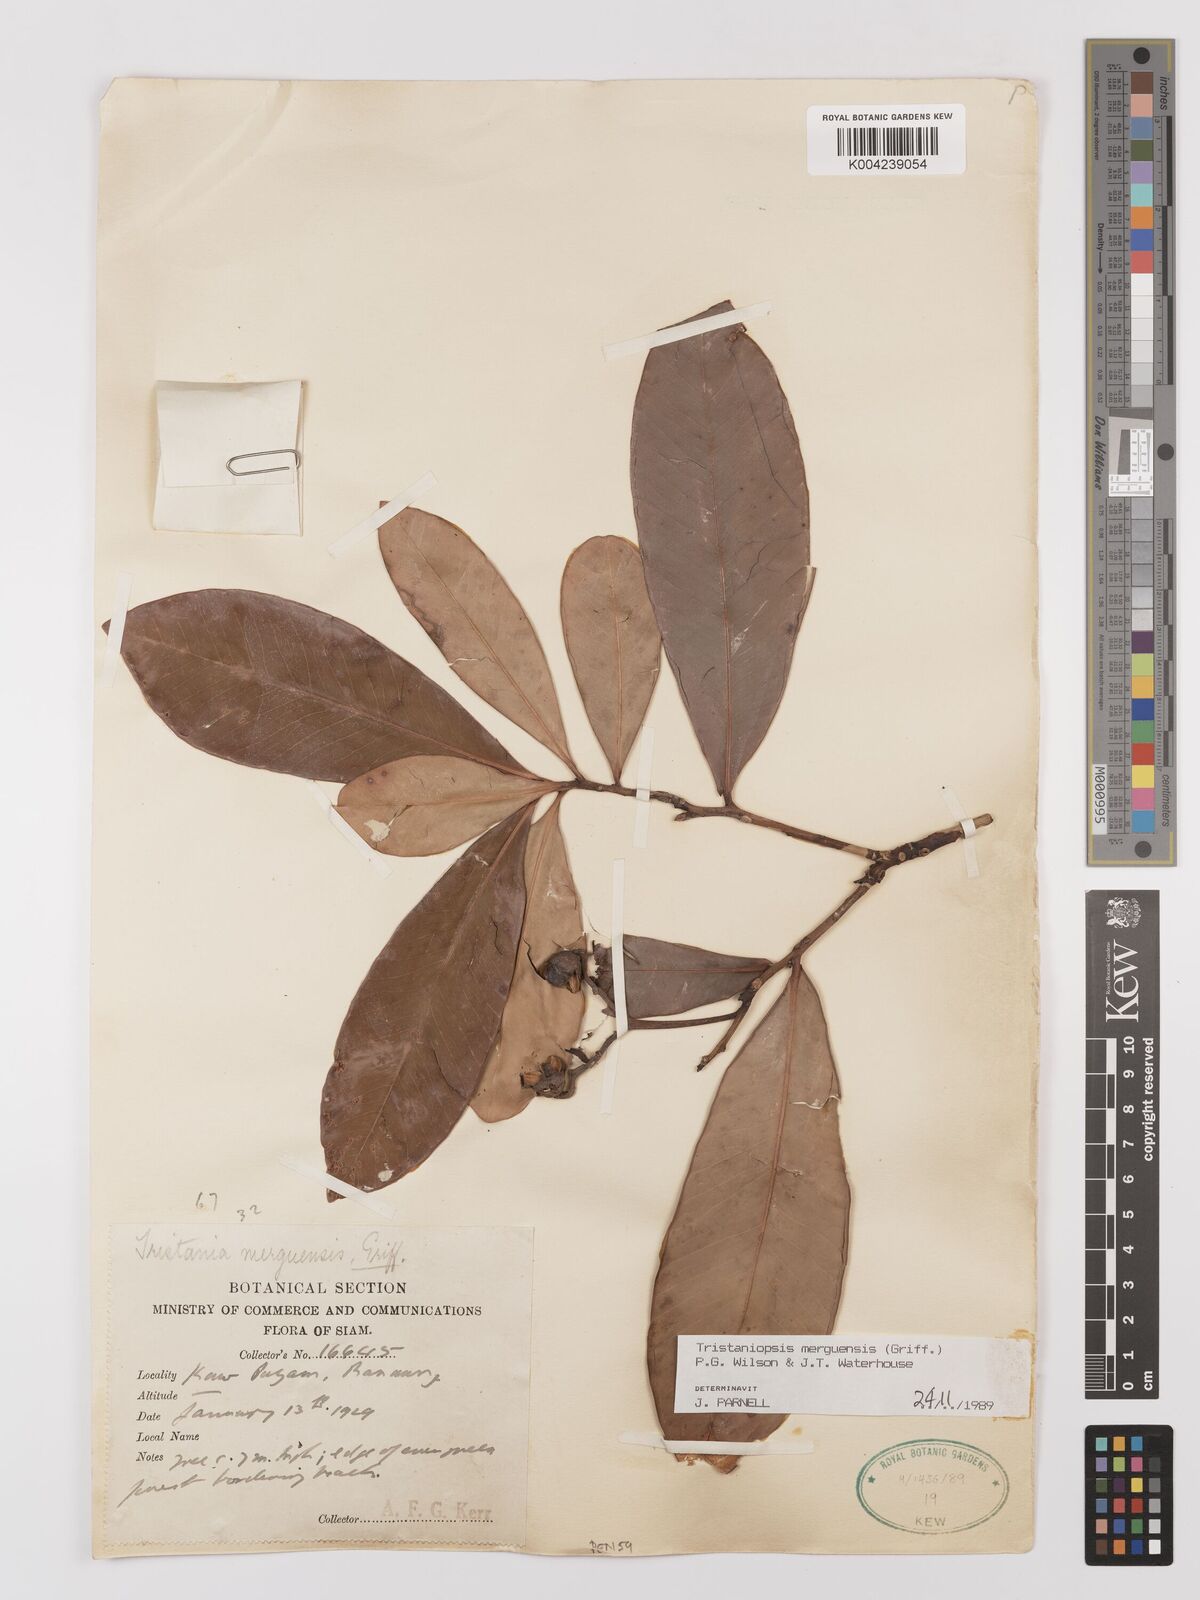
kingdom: Plantae
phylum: Tracheophyta
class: Magnoliopsida
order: Myrtales
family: Myrtaceae
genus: Tristaniopsis
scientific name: Tristaniopsis merguensis
